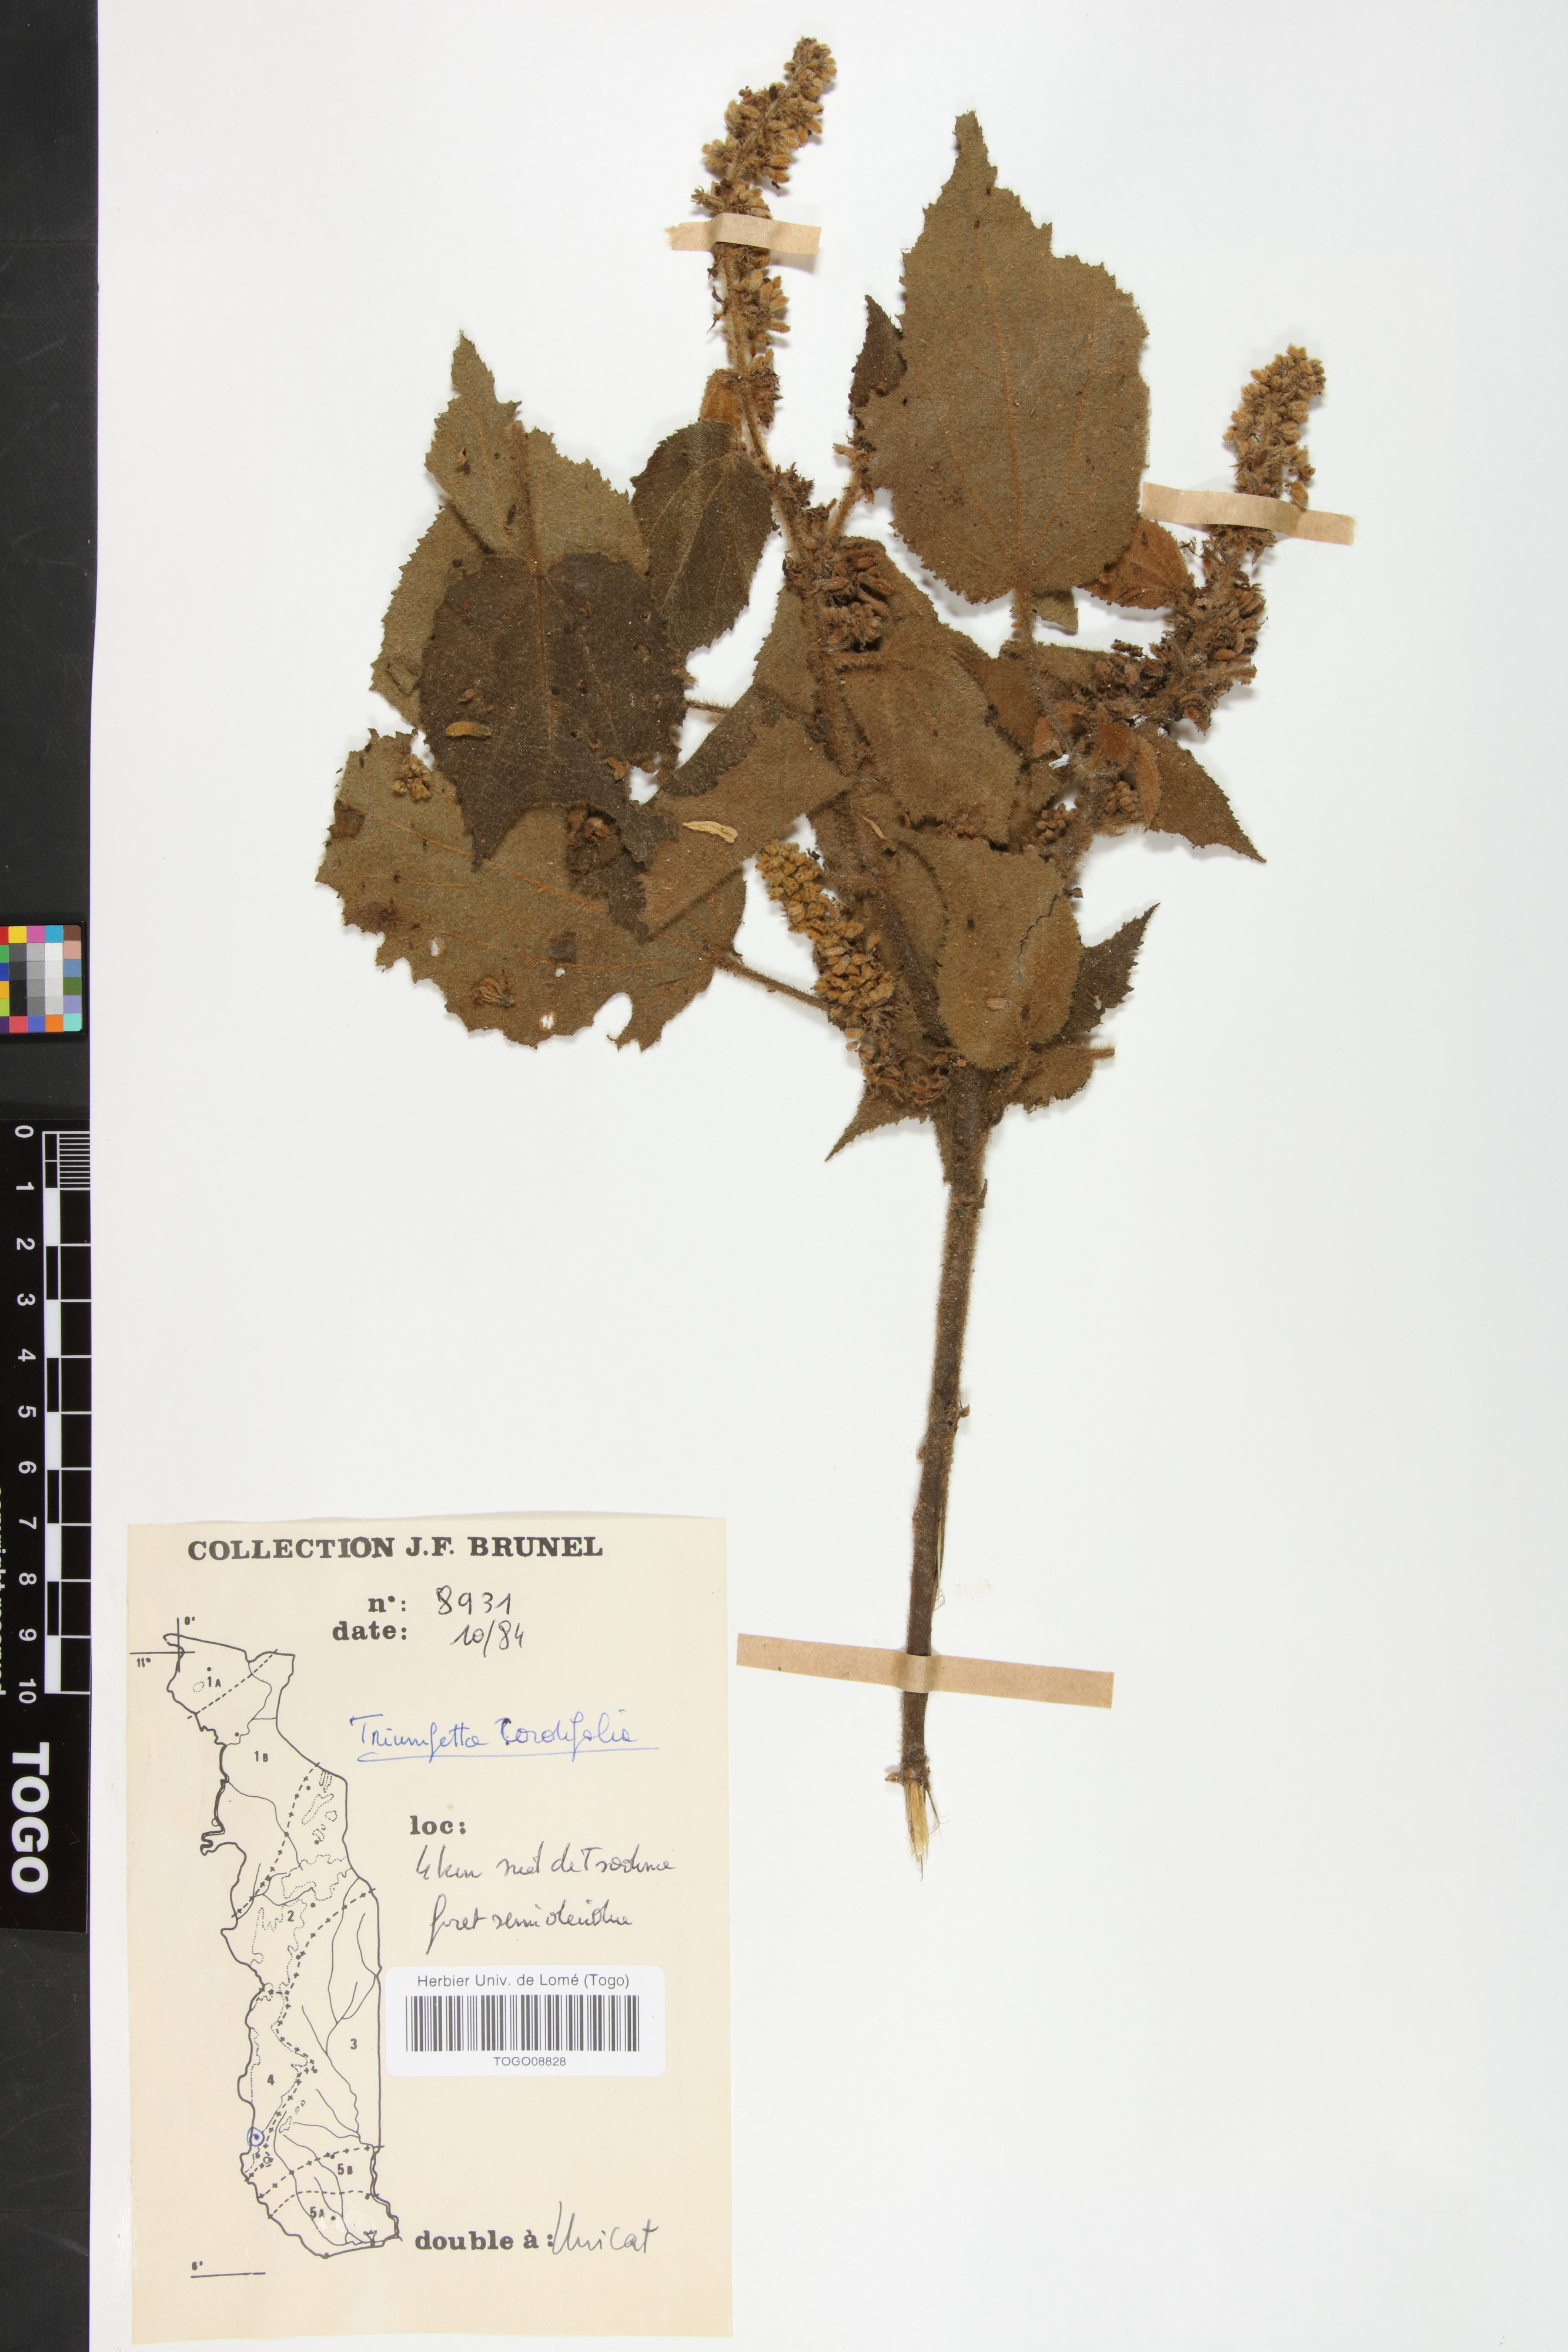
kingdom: Plantae
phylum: Tracheophyta
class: Magnoliopsida
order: Malvales
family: Malvaceae
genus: Triumfetta
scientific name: Triumfetta cordifolia
